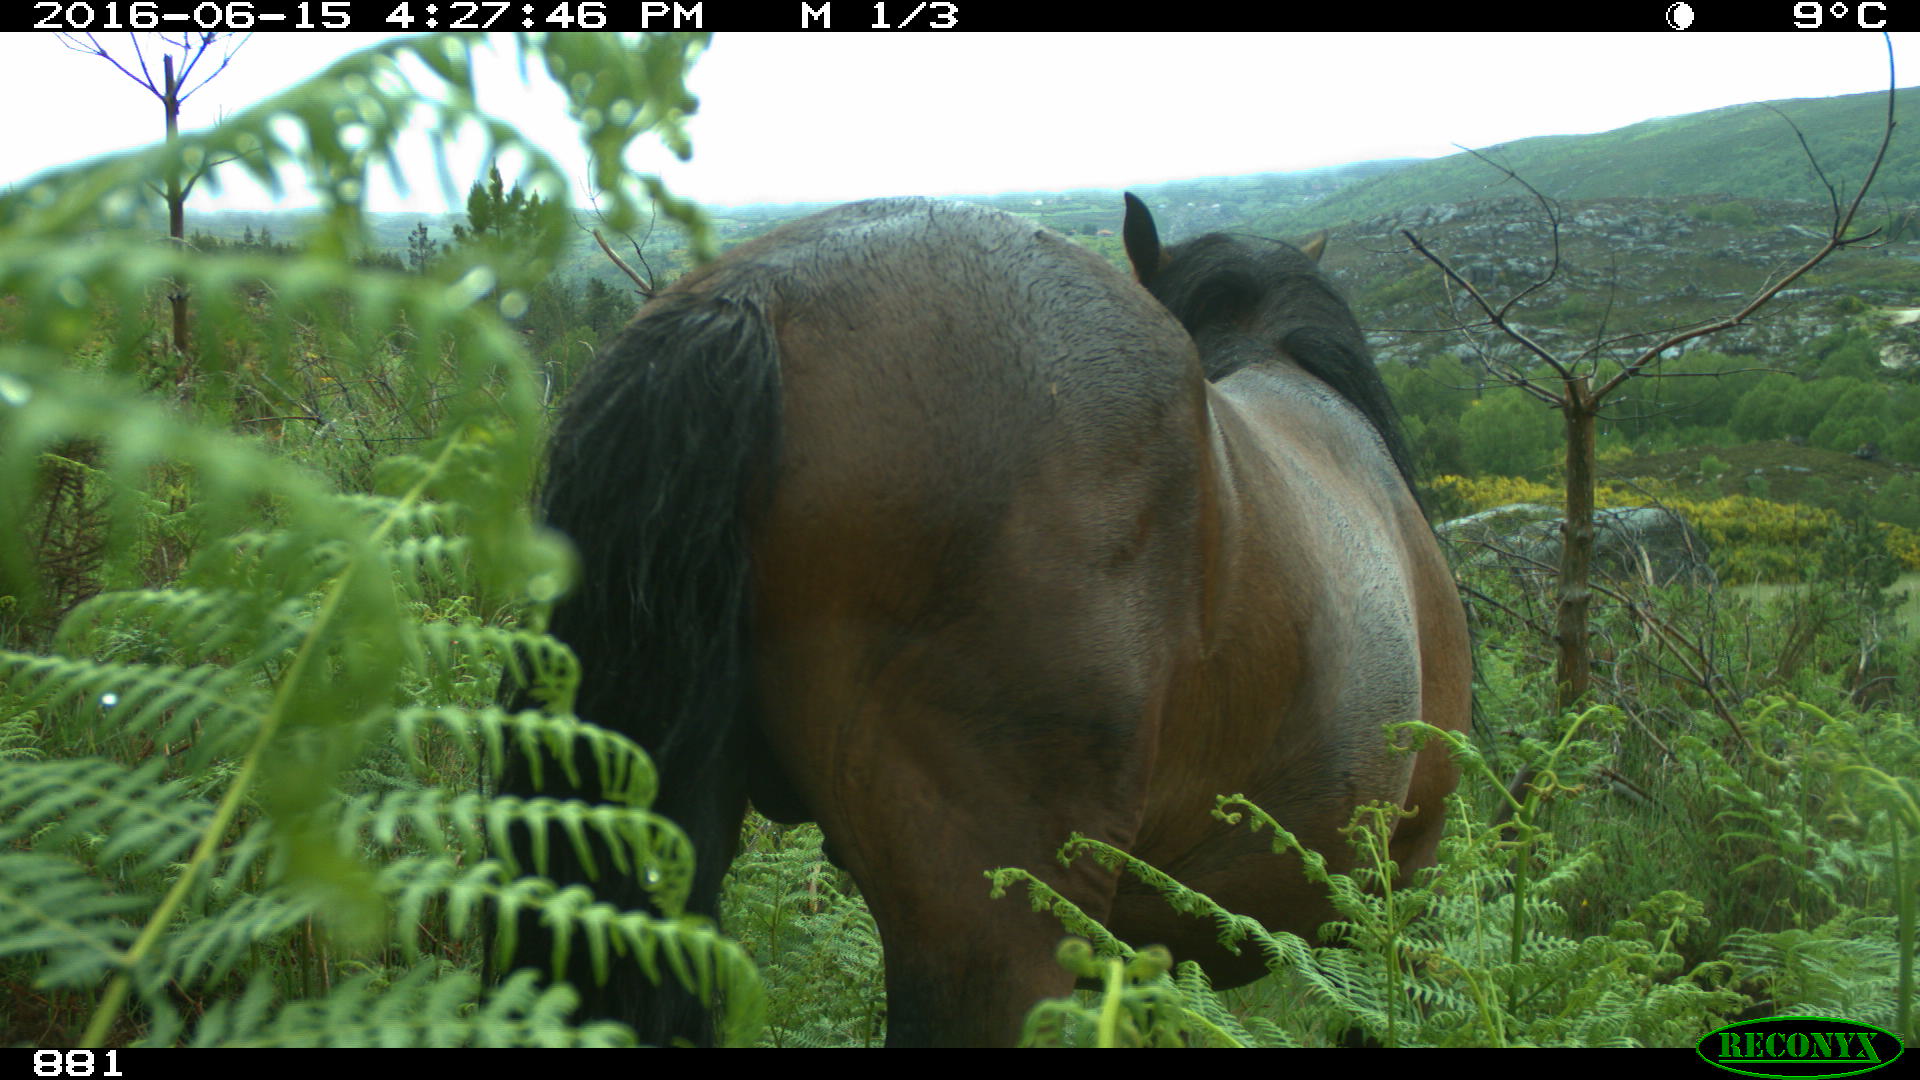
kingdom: Animalia
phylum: Chordata
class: Mammalia
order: Perissodactyla
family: Equidae
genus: Equus
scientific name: Equus caballus
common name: Horse
